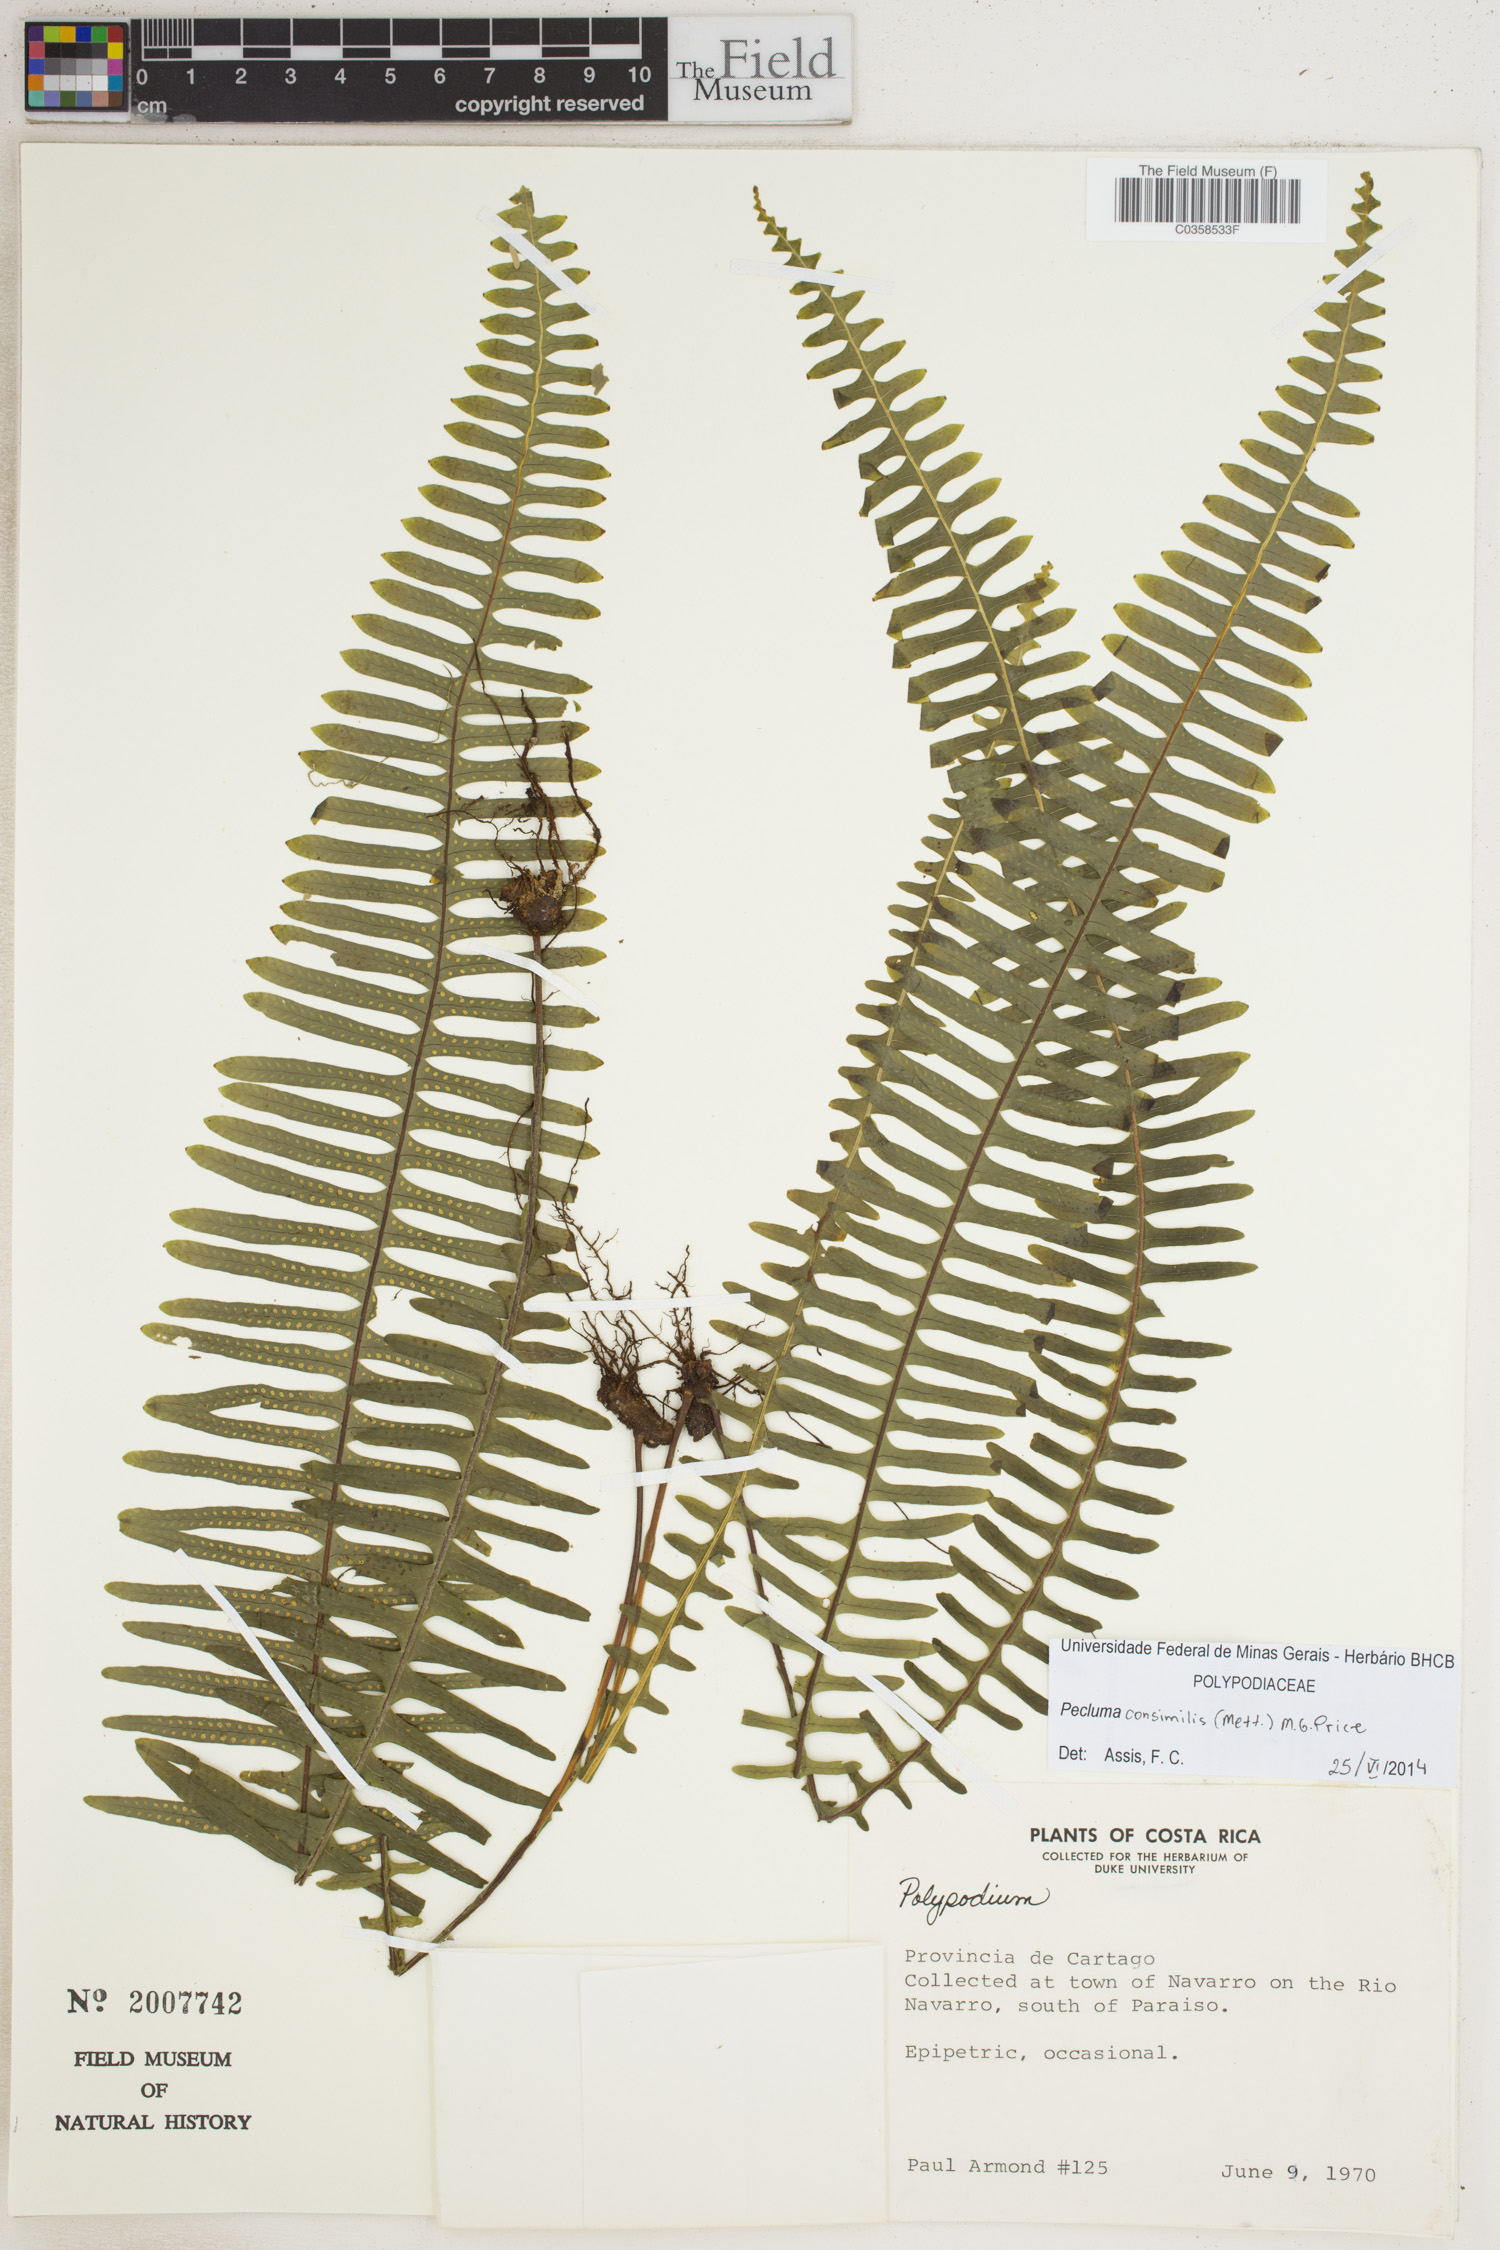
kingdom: Plantae
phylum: Tracheophyta
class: Polypodiopsida
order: Polypodiales
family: Polypodiaceae
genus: Pecluma
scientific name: Pecluma consimilis
